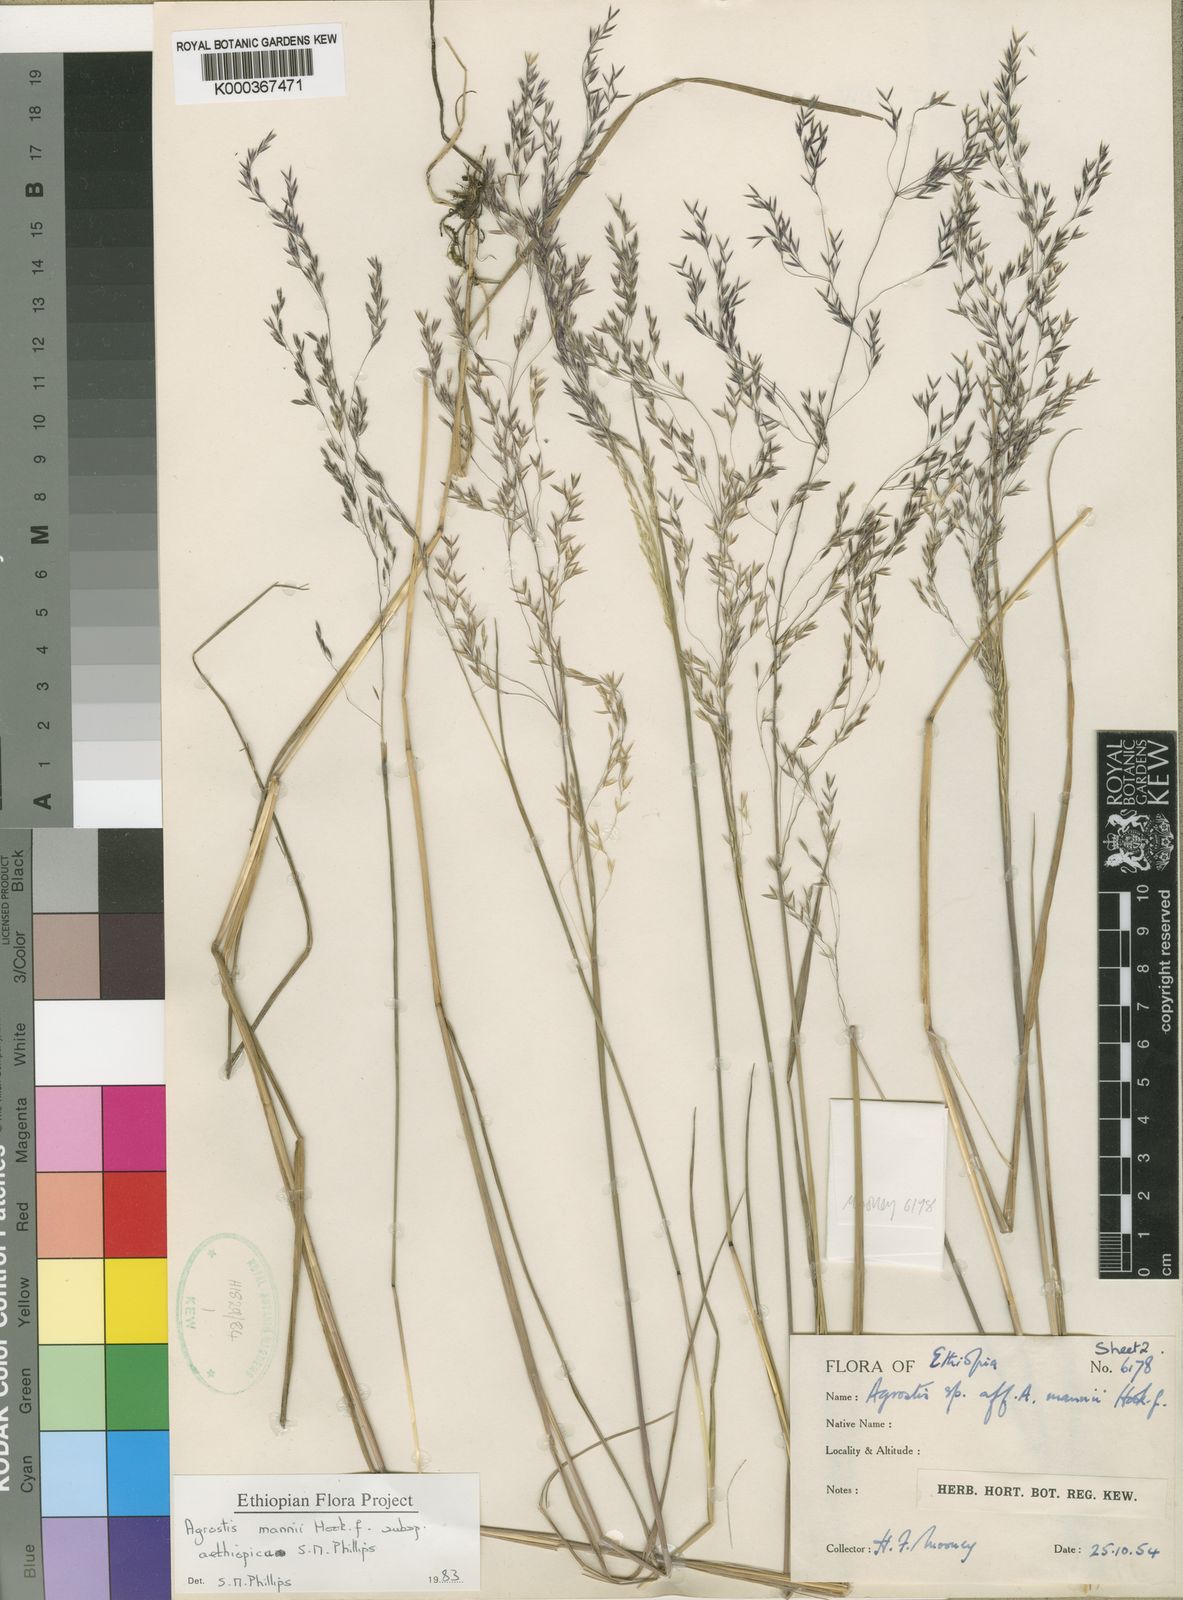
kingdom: Plantae
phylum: Tracheophyta
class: Liliopsida
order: Poales
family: Poaceae
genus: Agrostis
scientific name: Agrostis mannii
